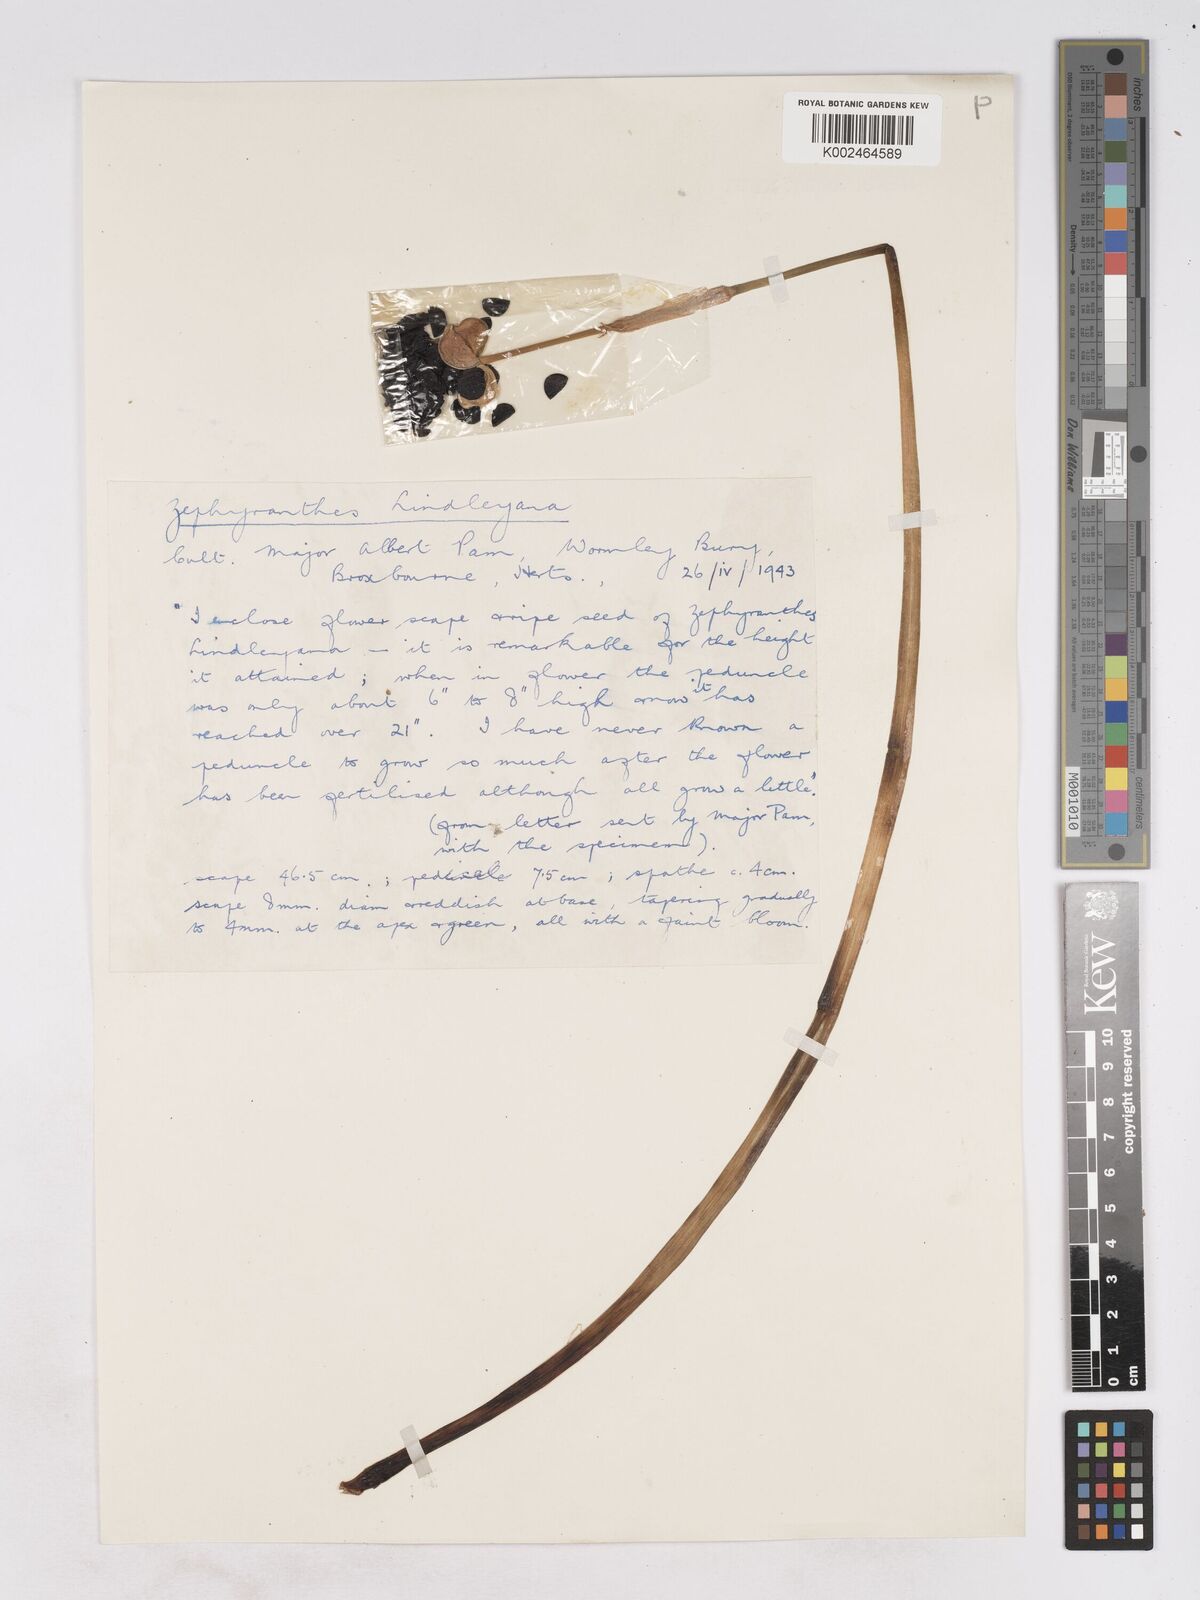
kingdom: Plantae
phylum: Tracheophyta
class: Liliopsida
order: Asparagales
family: Amaryllidaceae
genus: Zephyranthes
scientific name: Zephyranthes lindleyana
